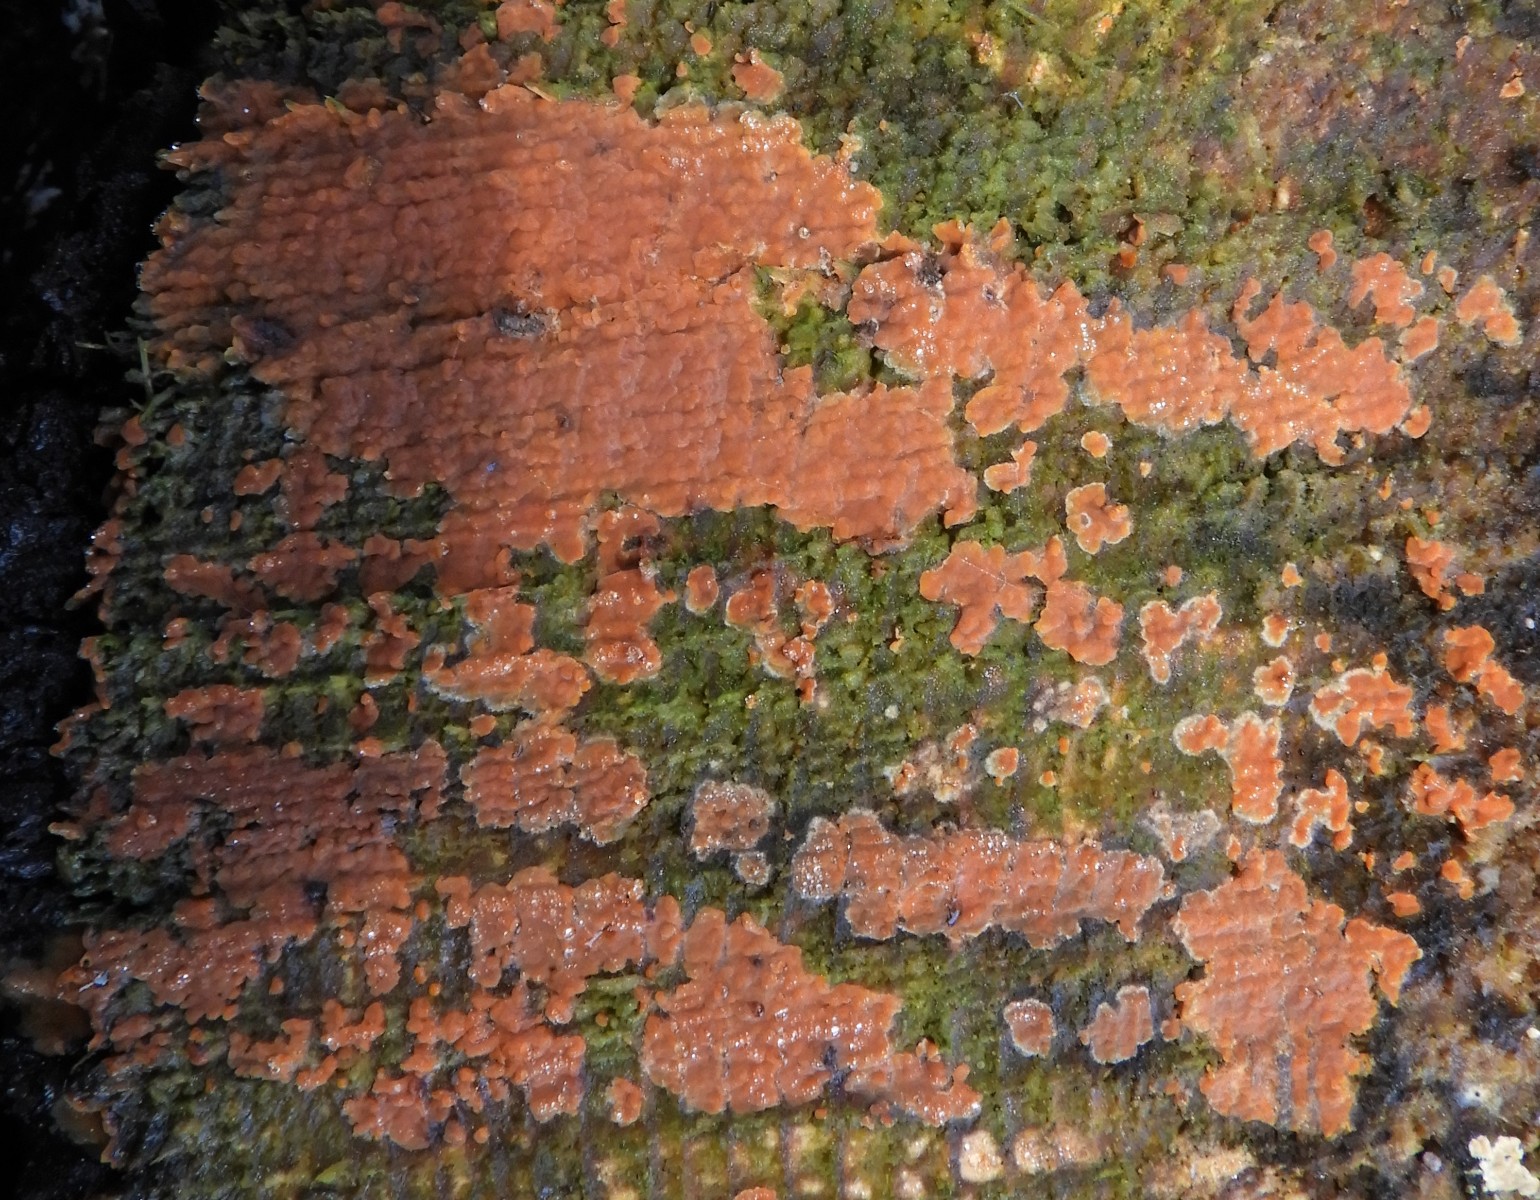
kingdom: Fungi
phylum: Basidiomycota
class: Agaricomycetes
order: Russulales
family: Peniophoraceae
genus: Peniophora
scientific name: Peniophora incarnata
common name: laksefarvet voksskind
